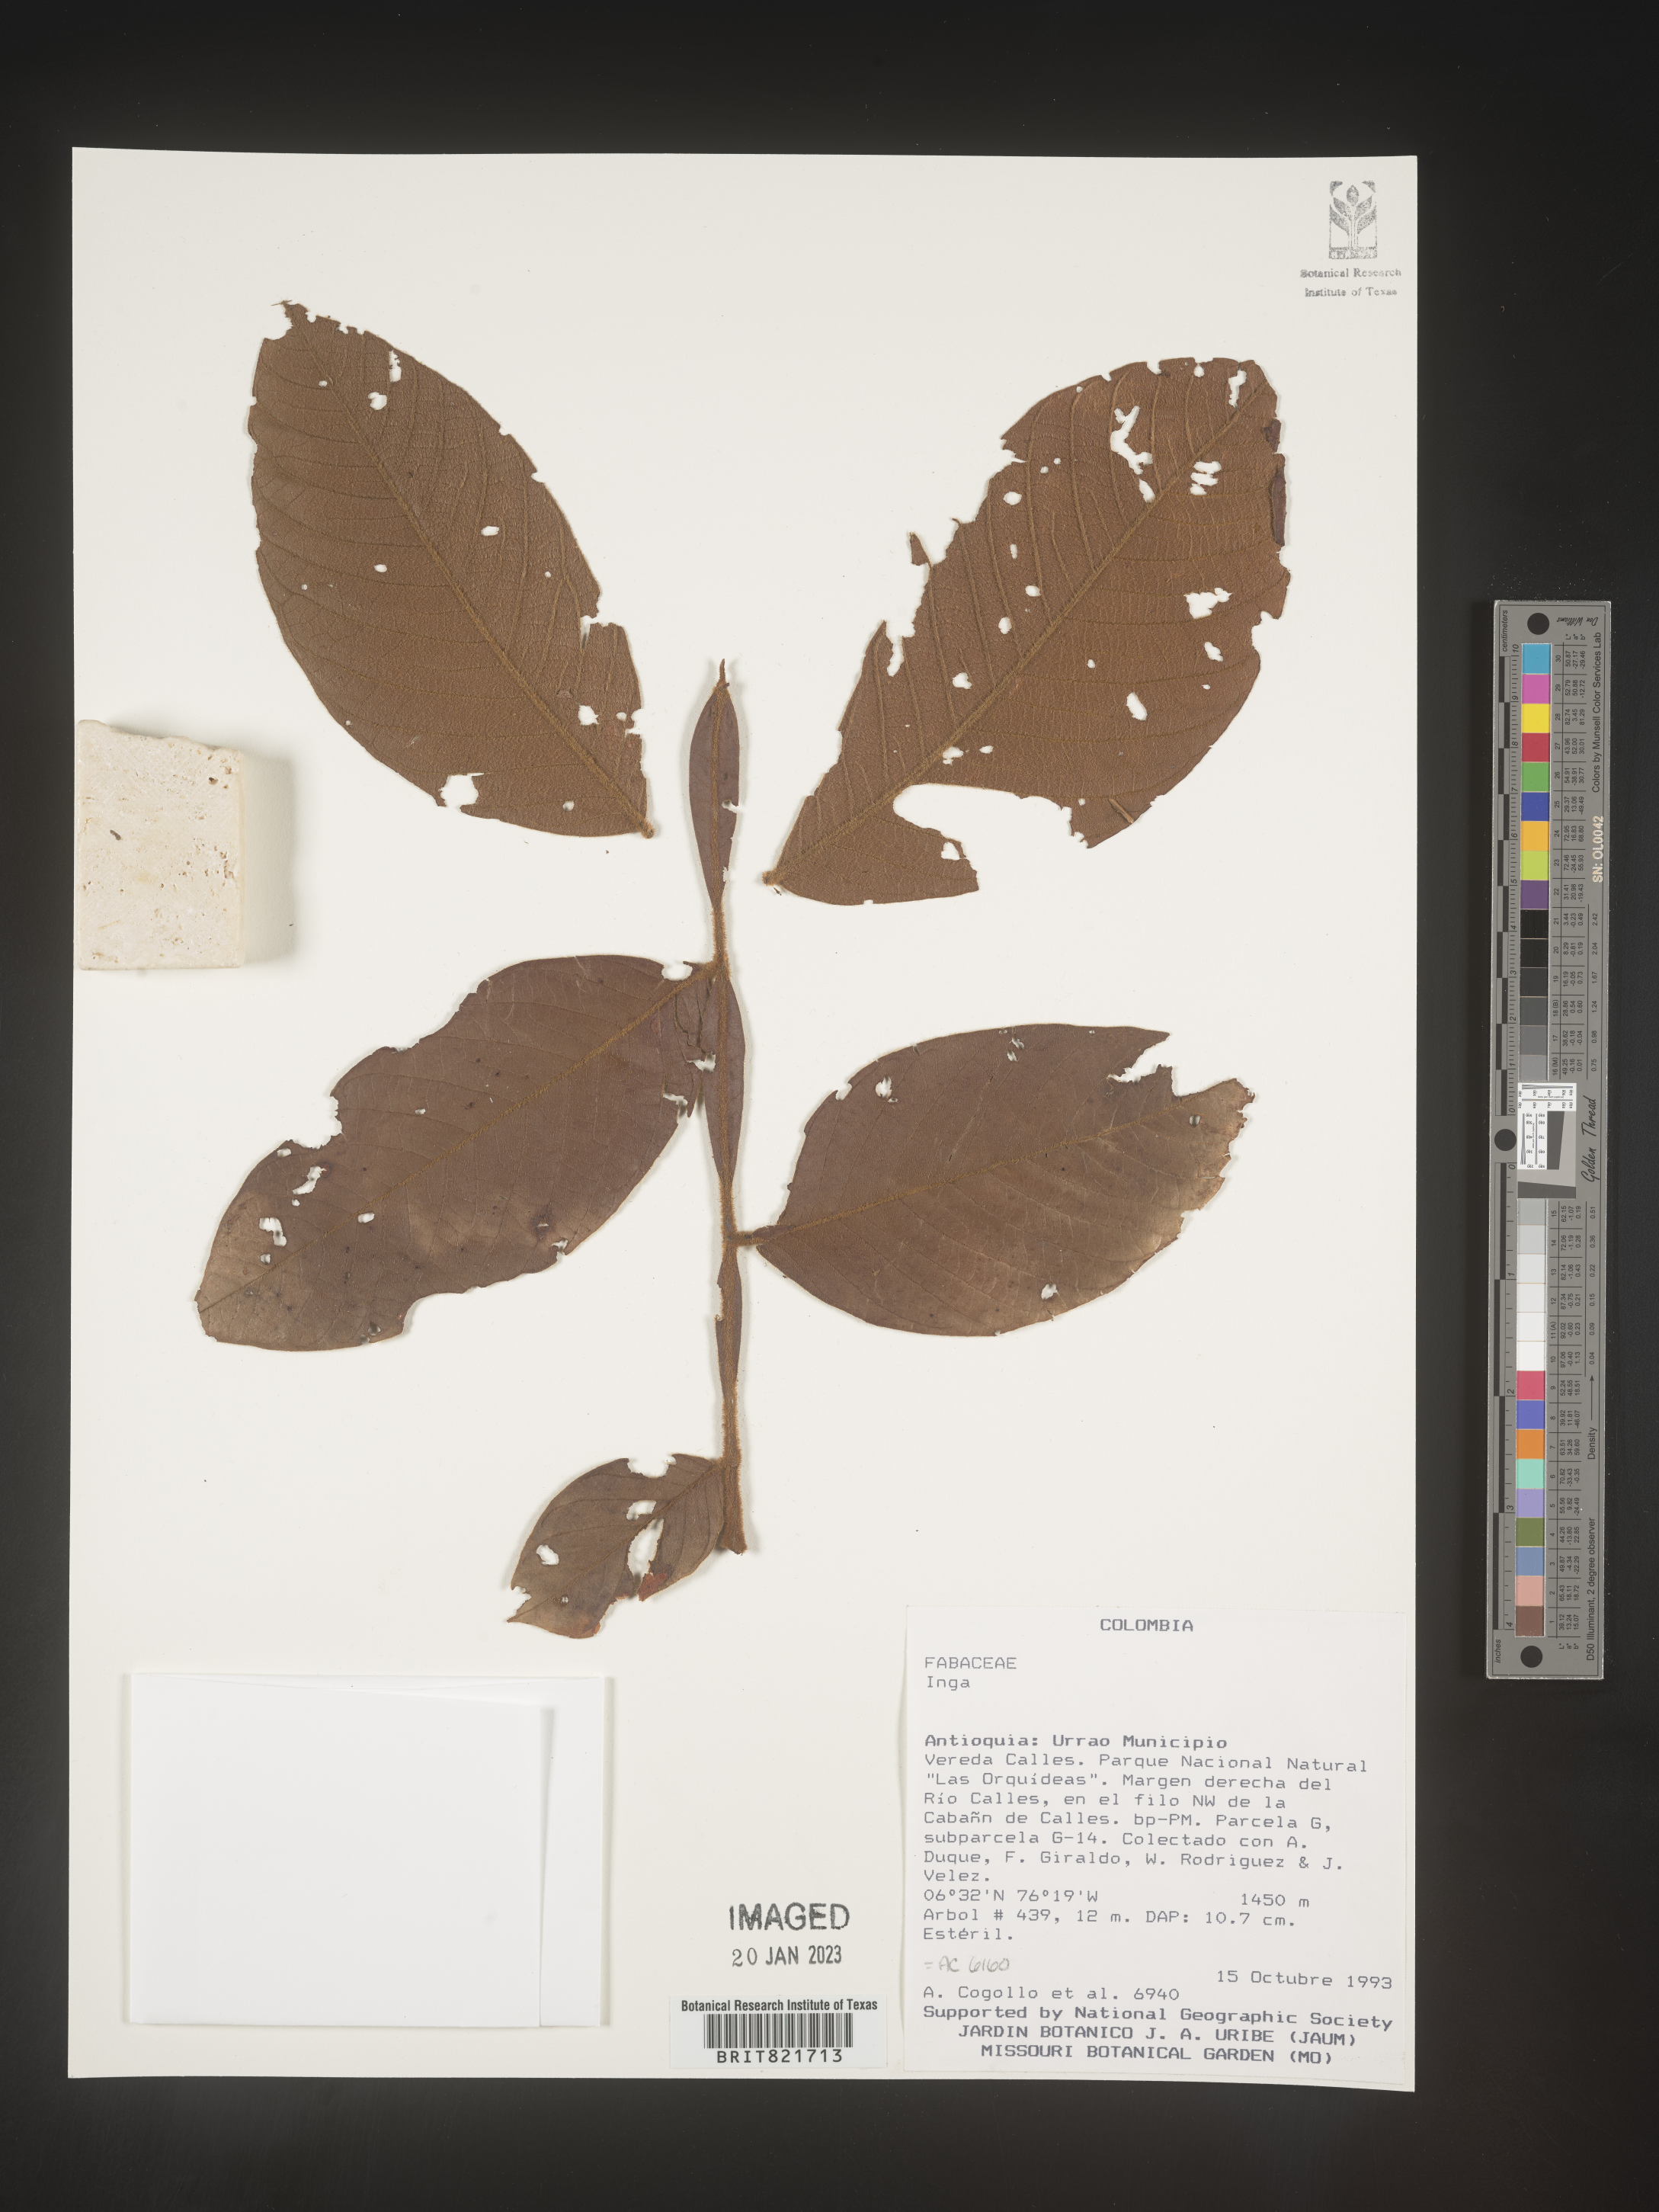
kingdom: Plantae
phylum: Tracheophyta
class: Magnoliopsida
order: Fabales
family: Fabaceae
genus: Inga
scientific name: Inga
